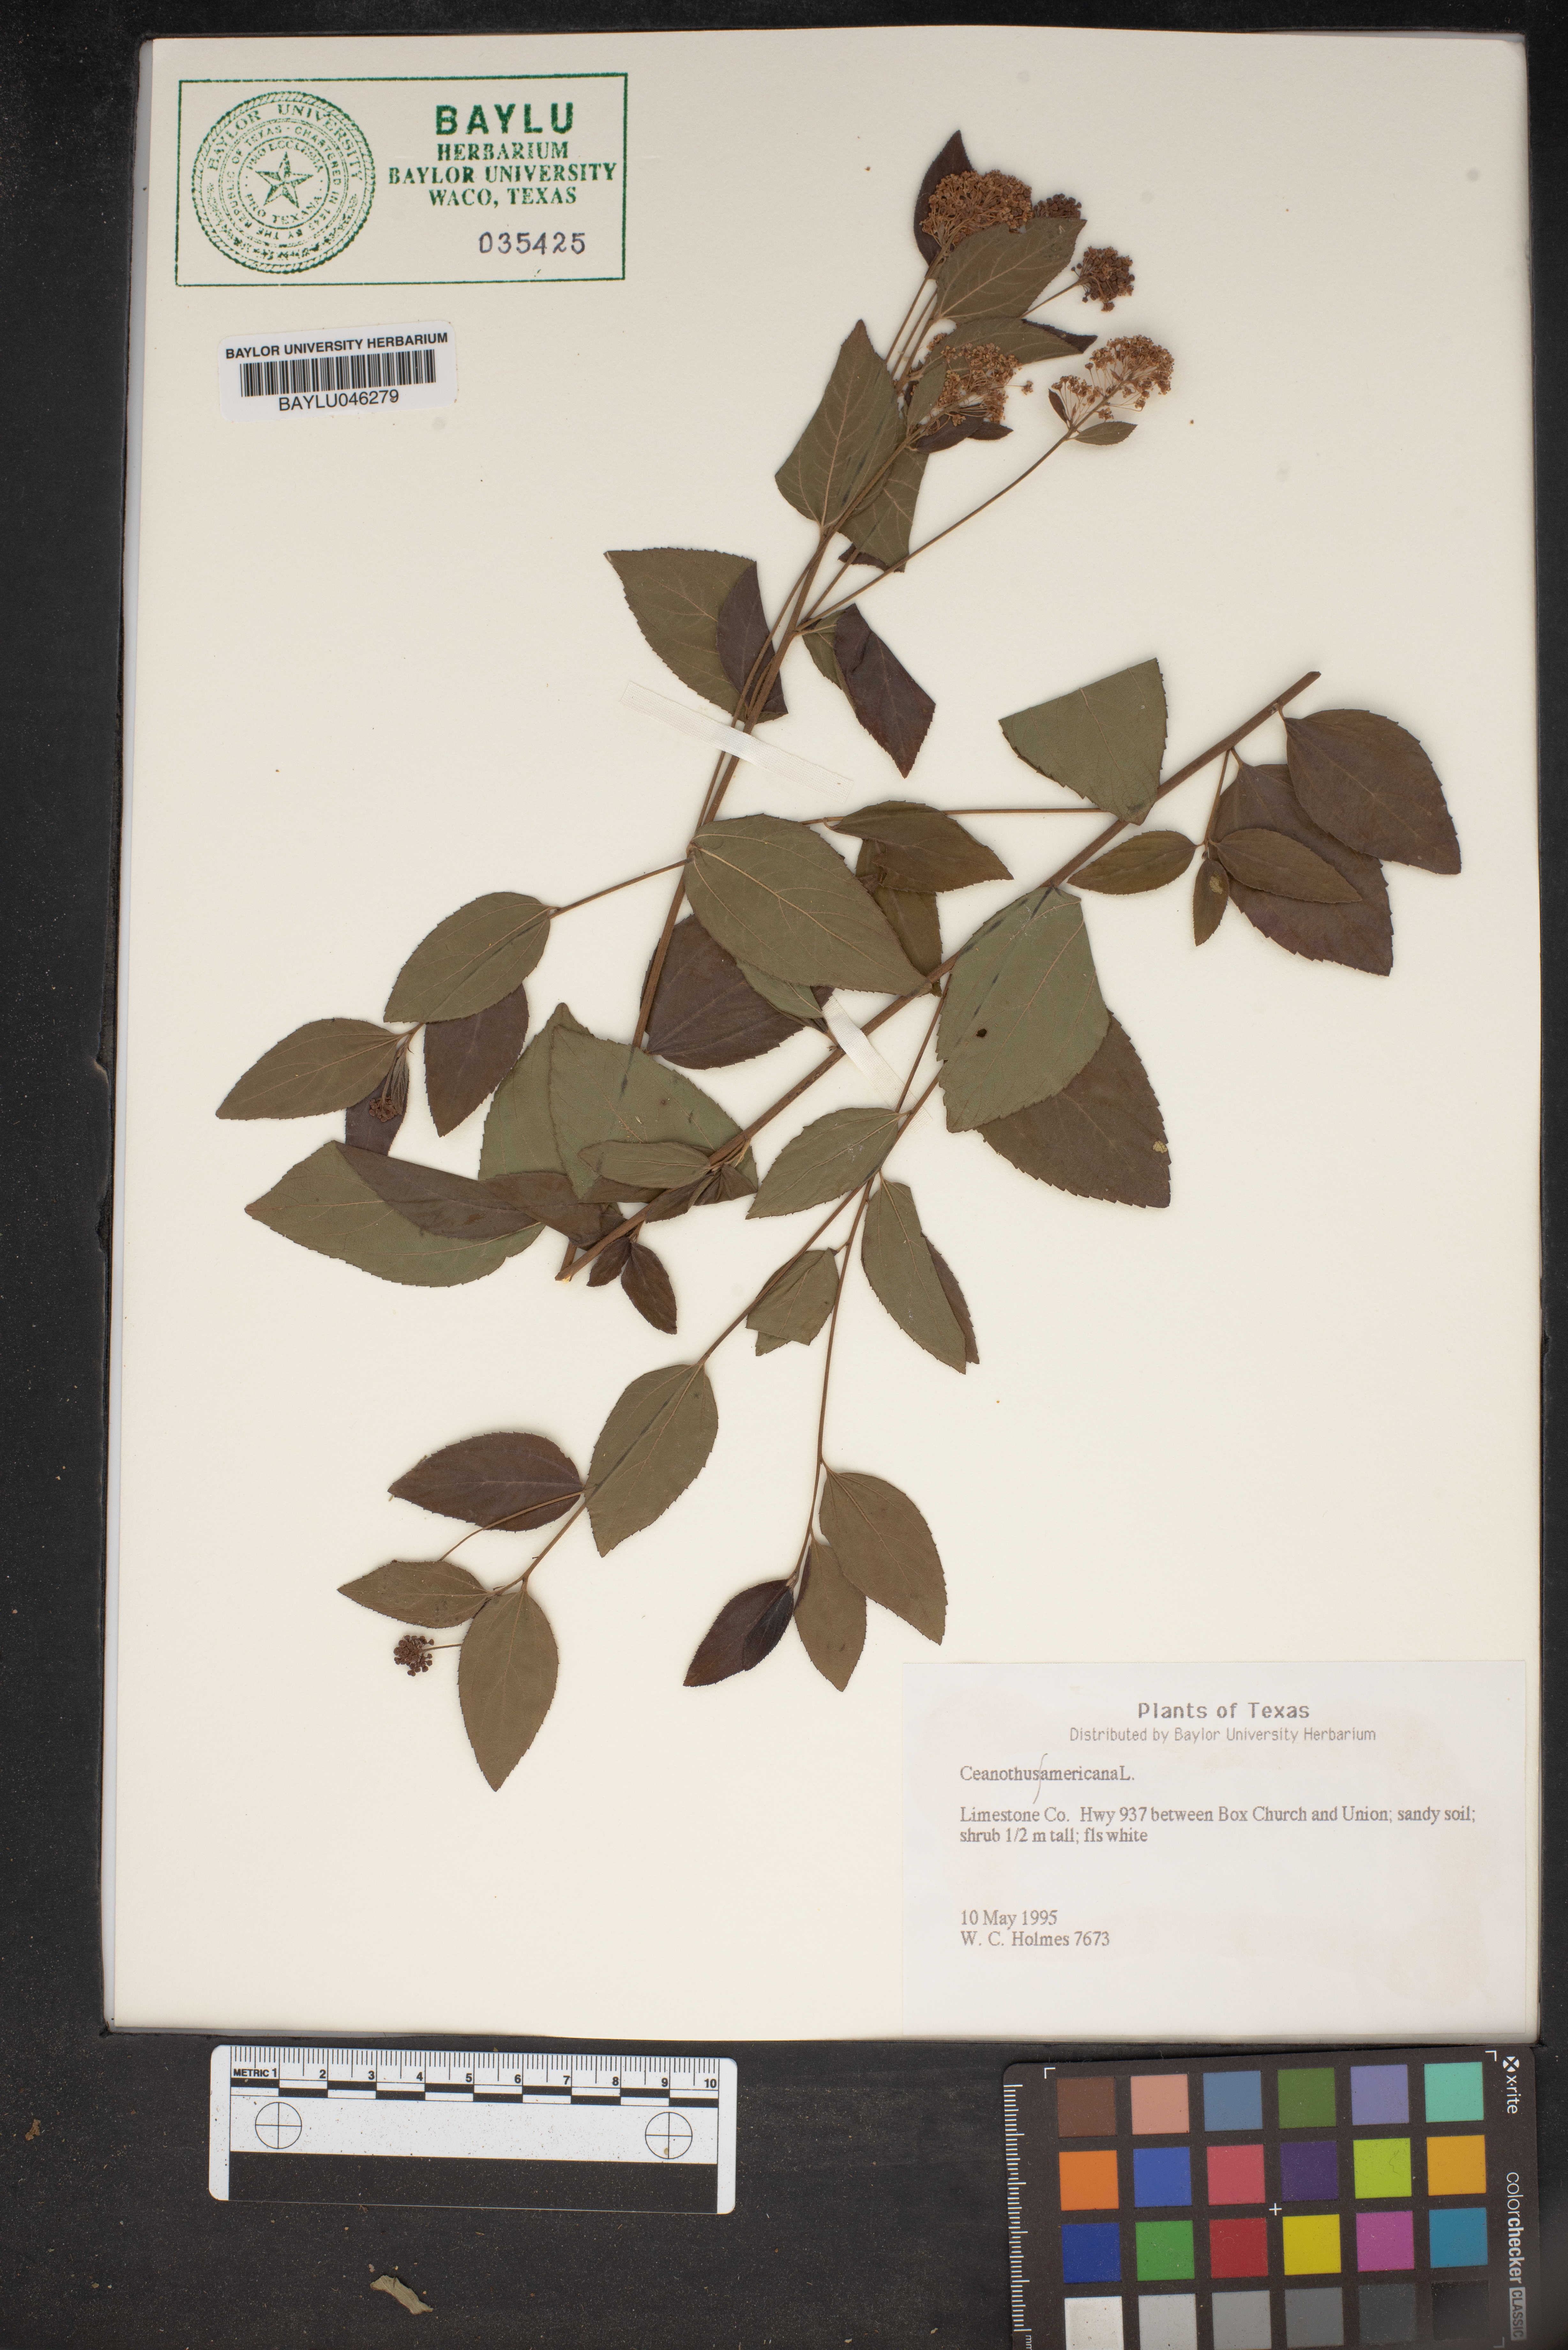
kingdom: Plantae
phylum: Tracheophyta
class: Magnoliopsida
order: Rosales
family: Rhamnaceae
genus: Ceanothus
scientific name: Ceanothus americanus
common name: Redroot
